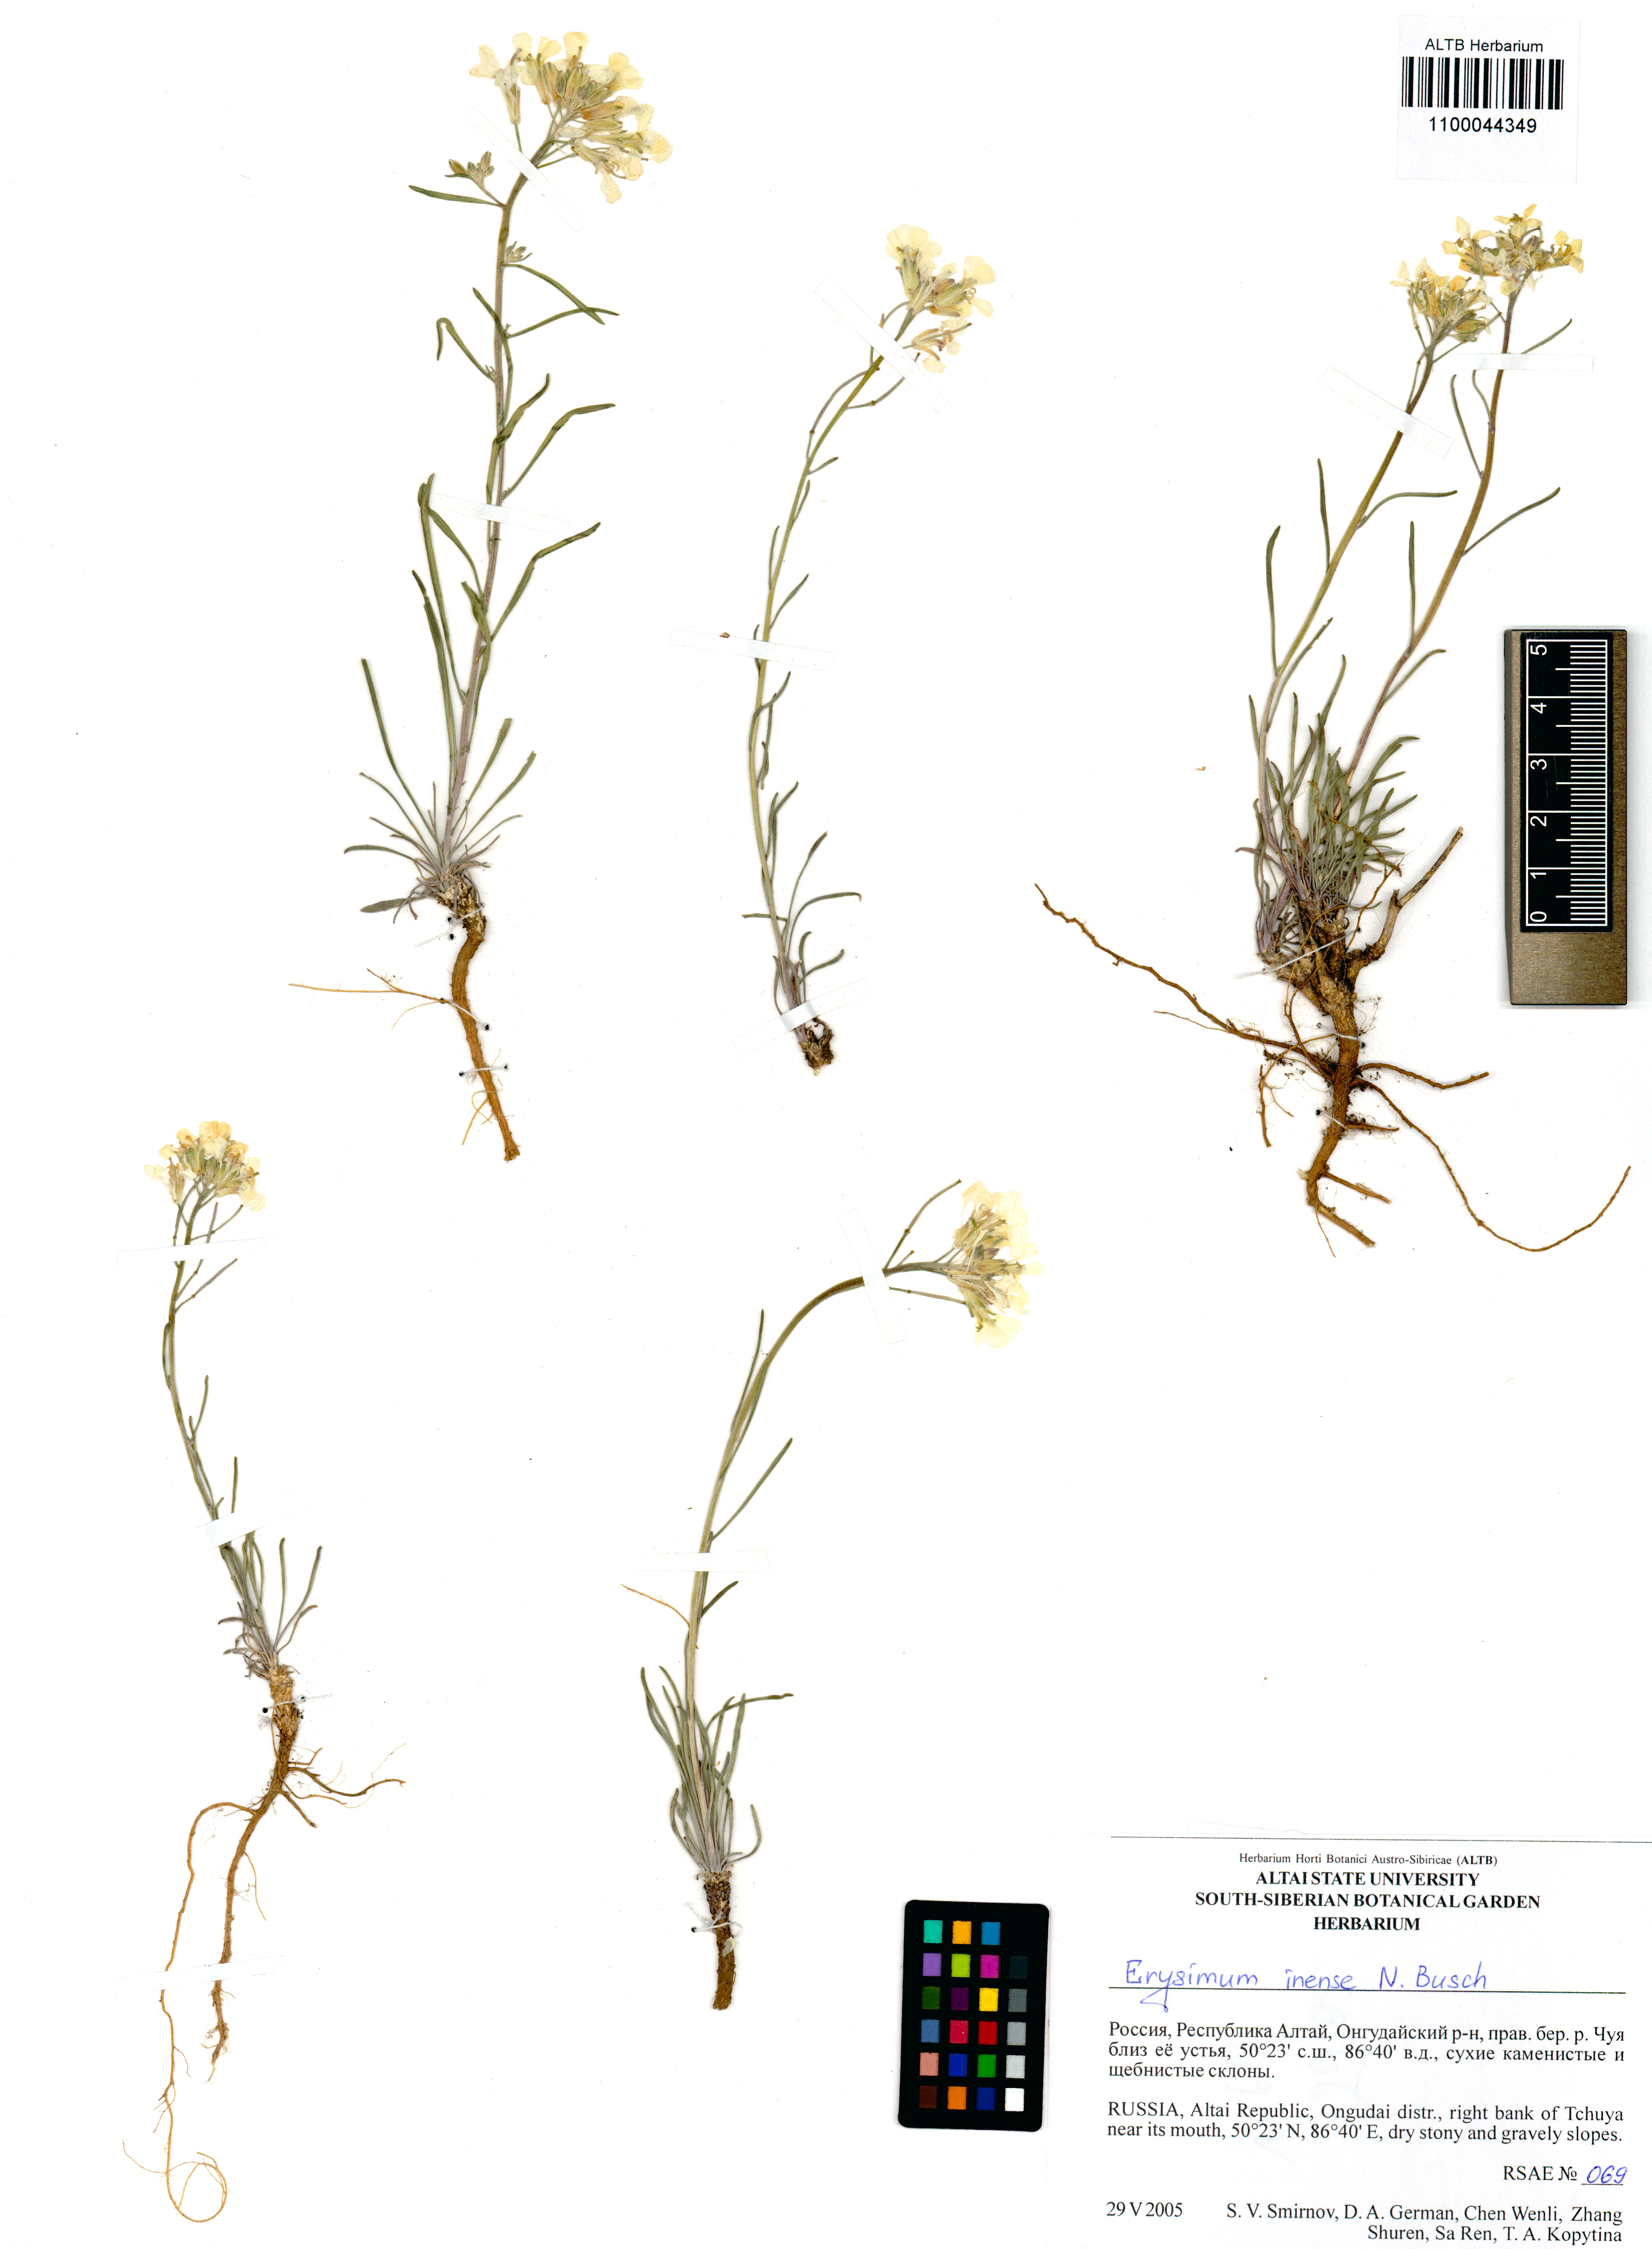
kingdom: Plantae
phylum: Tracheophyta
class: Magnoliopsida
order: Brassicales
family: Brassicaceae
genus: Erysimum
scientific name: Erysimum inense
